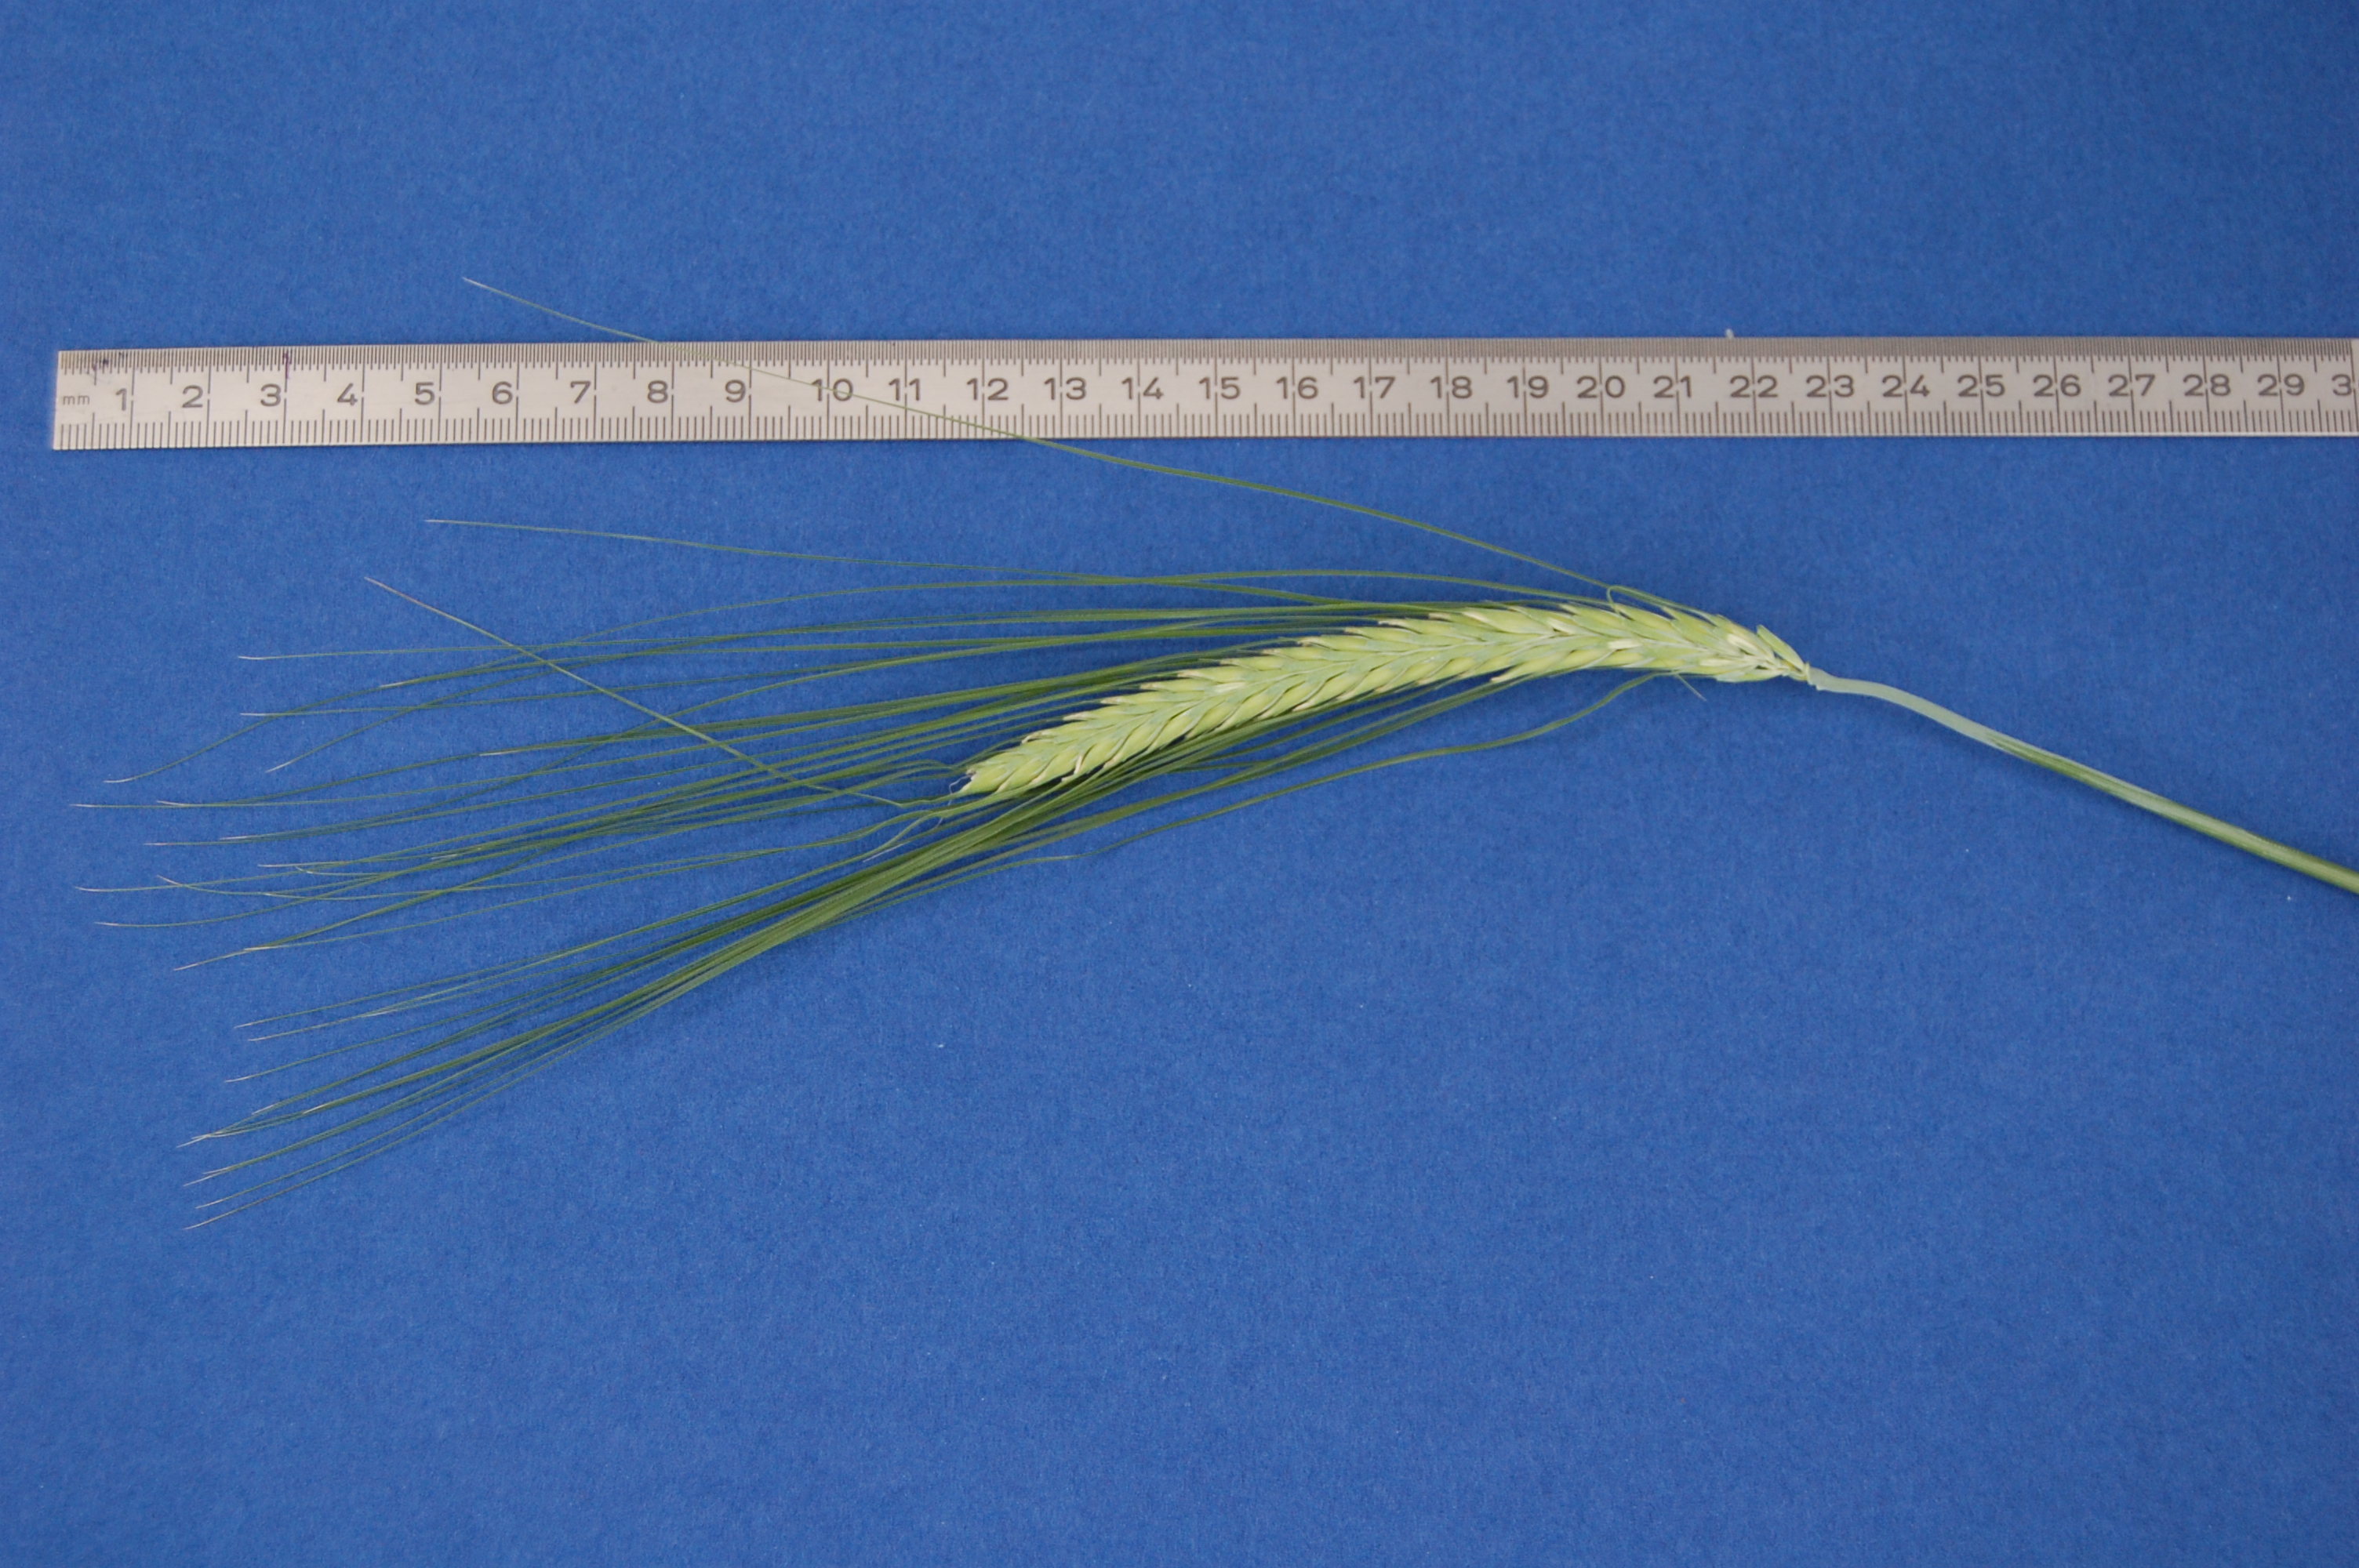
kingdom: Plantae
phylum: Tracheophyta
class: Liliopsida
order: Poales
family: Poaceae
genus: Hordeum
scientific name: Hordeum vulgare
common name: Common barley
